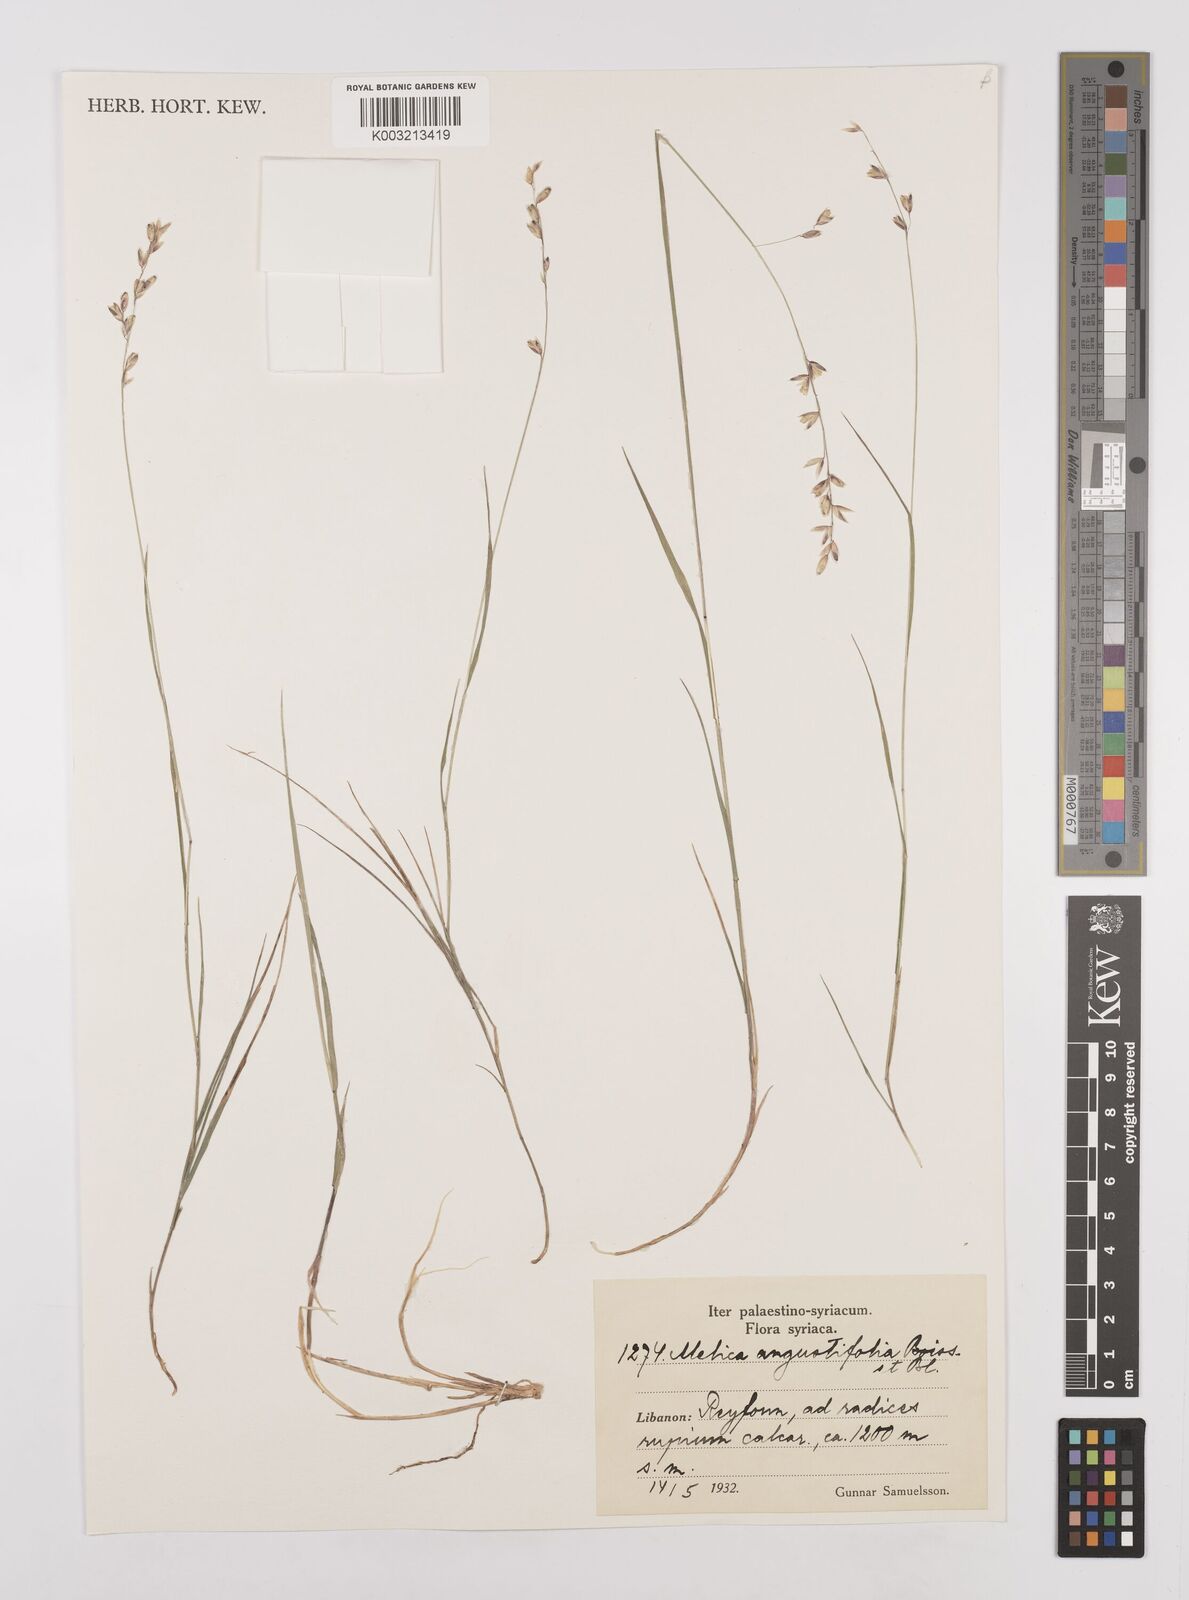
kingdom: Plantae
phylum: Tracheophyta
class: Liliopsida
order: Poales
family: Poaceae
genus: Melica
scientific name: Melica eligulata
